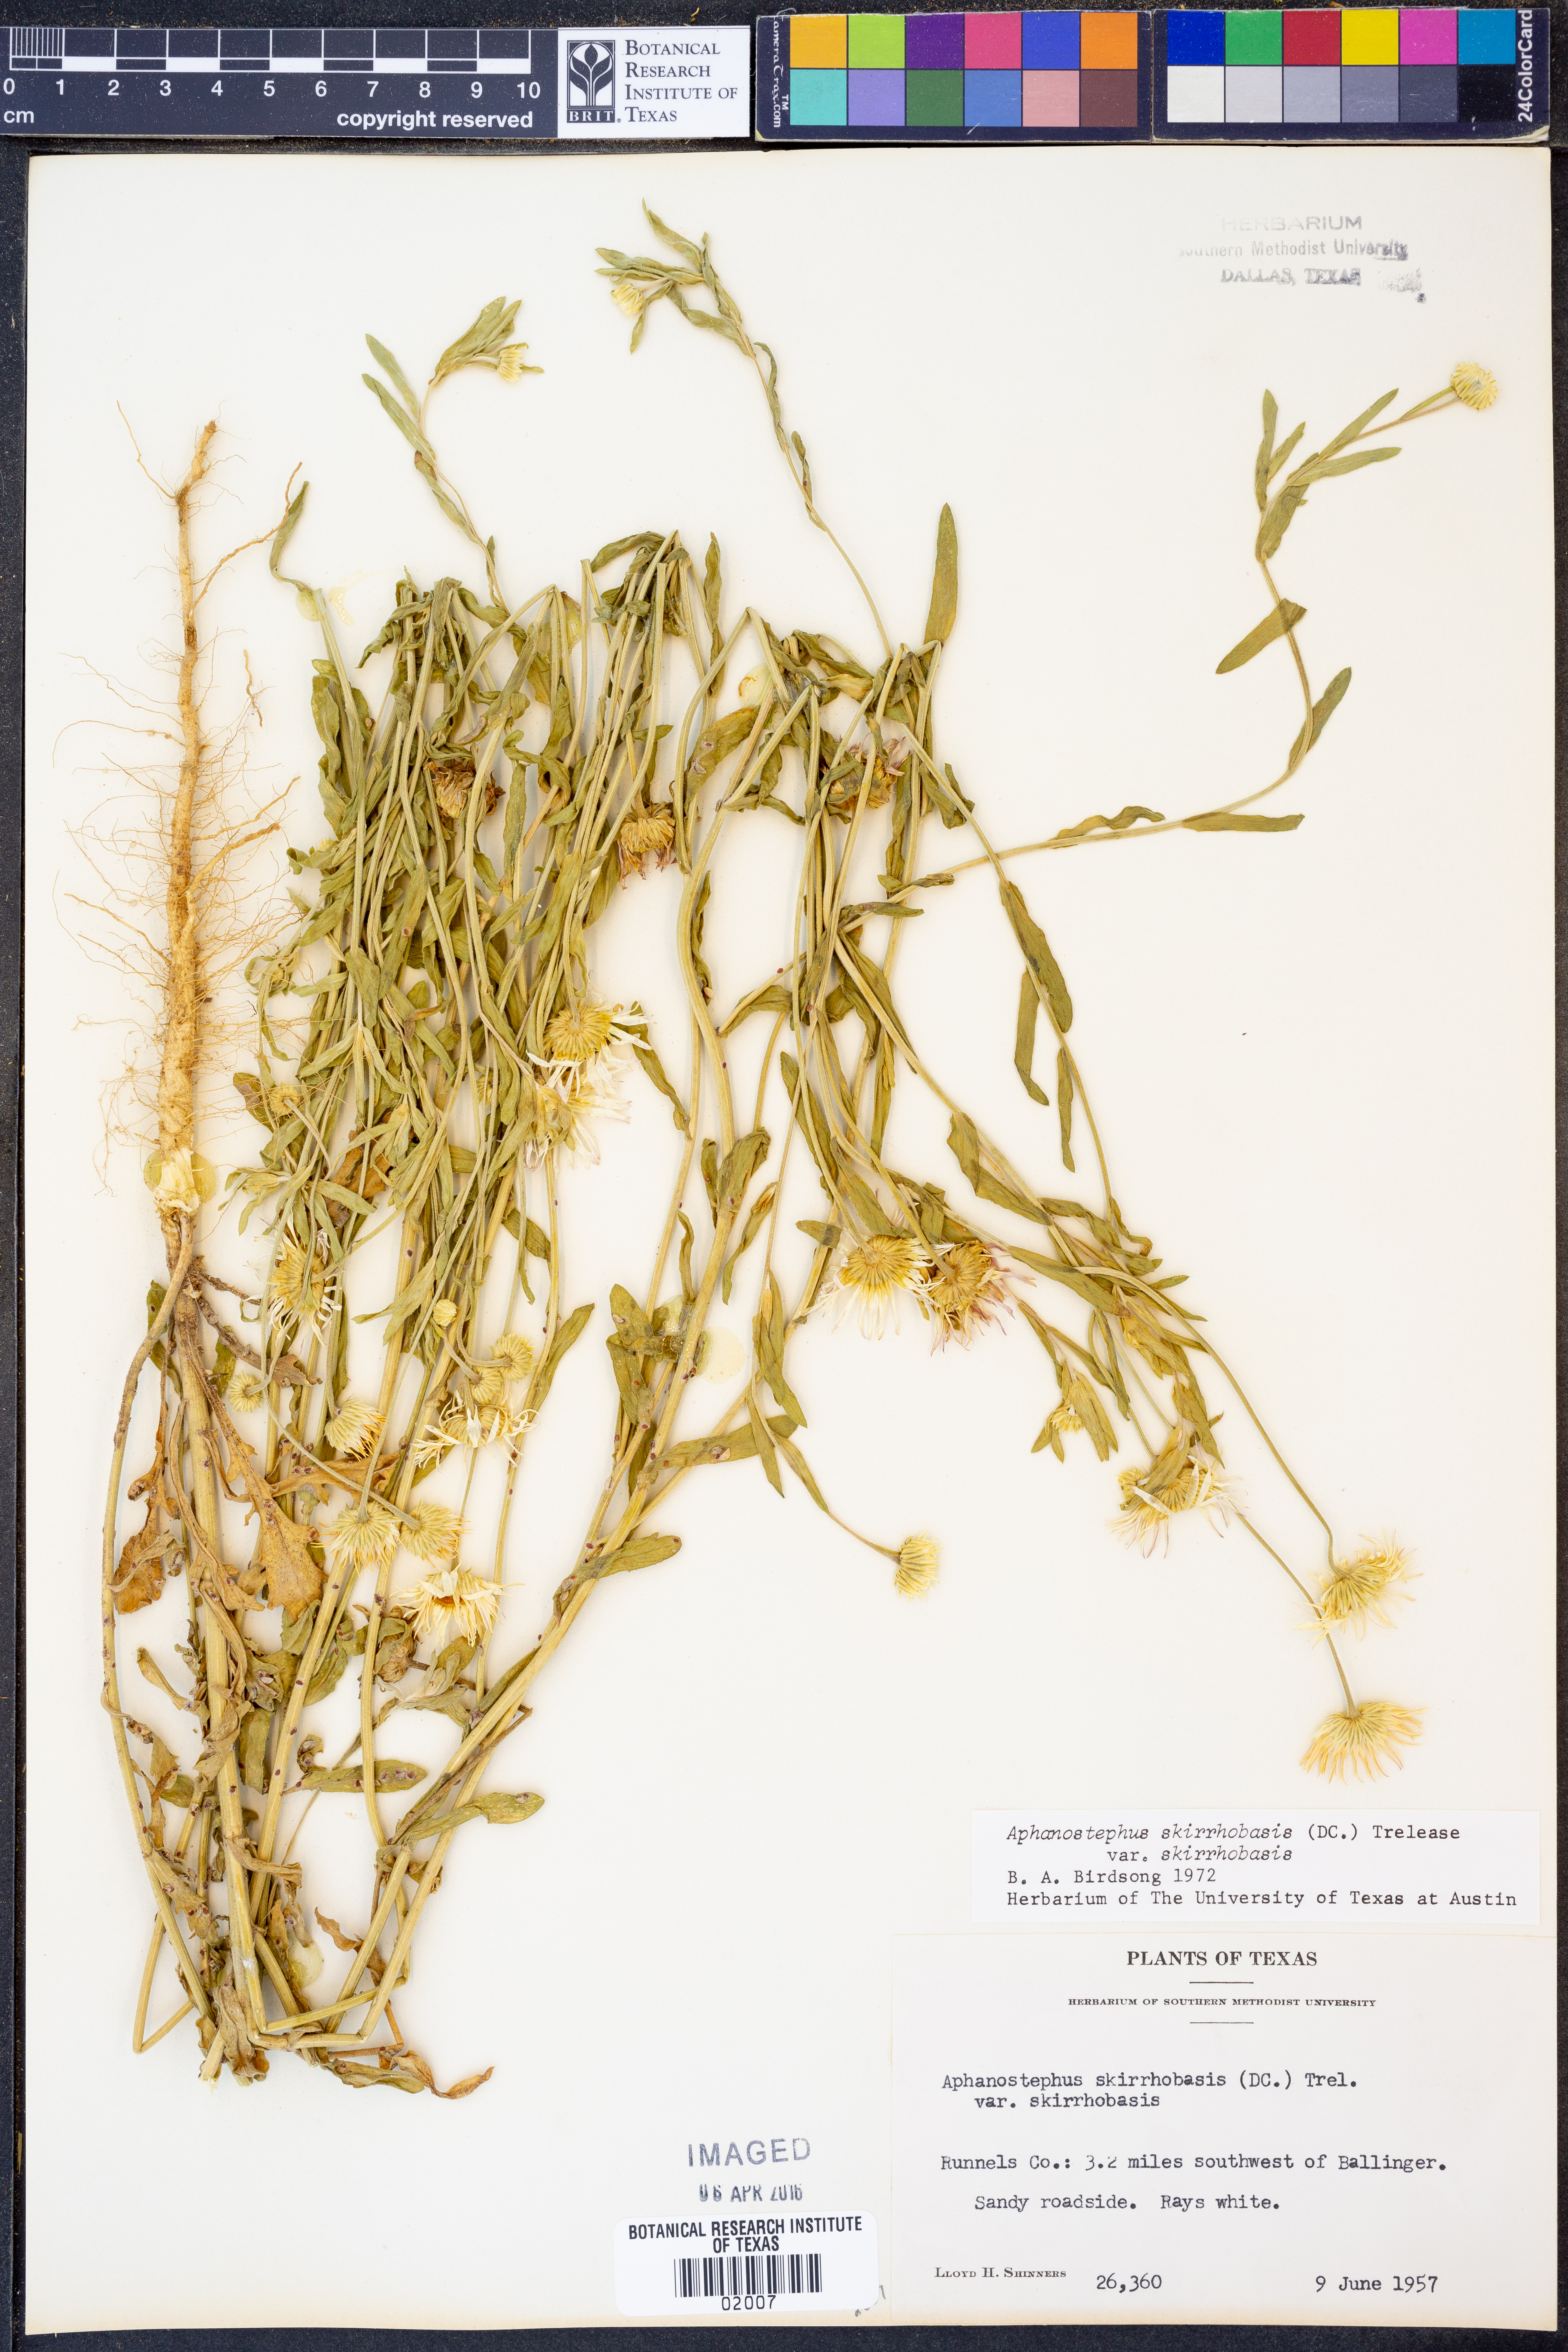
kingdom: Plantae
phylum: Tracheophyta
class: Magnoliopsida
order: Asterales
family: Asteraceae
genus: Aphanostephus
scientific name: Aphanostephus skirrhobasis
